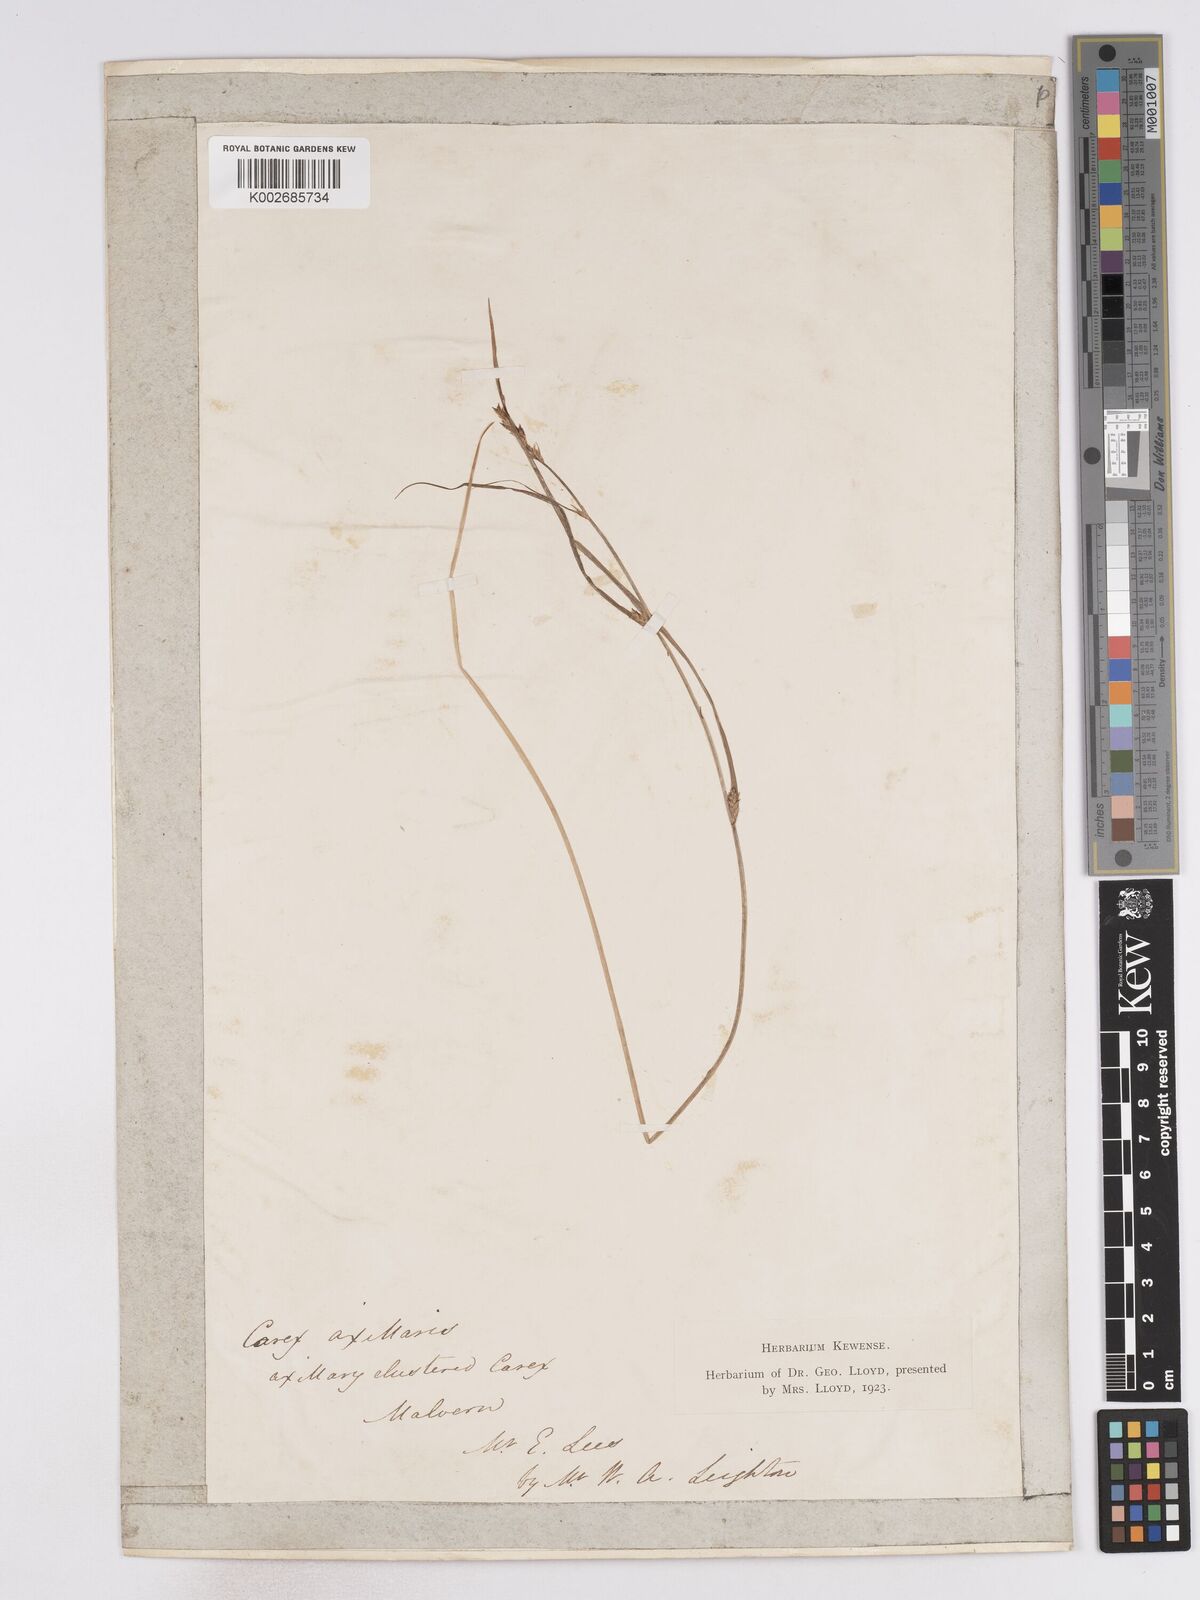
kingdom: Plantae
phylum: Tracheophyta
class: Liliopsida
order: Poales
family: Cyperaceae
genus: Carex
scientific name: Carex remota
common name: Remote sedge
